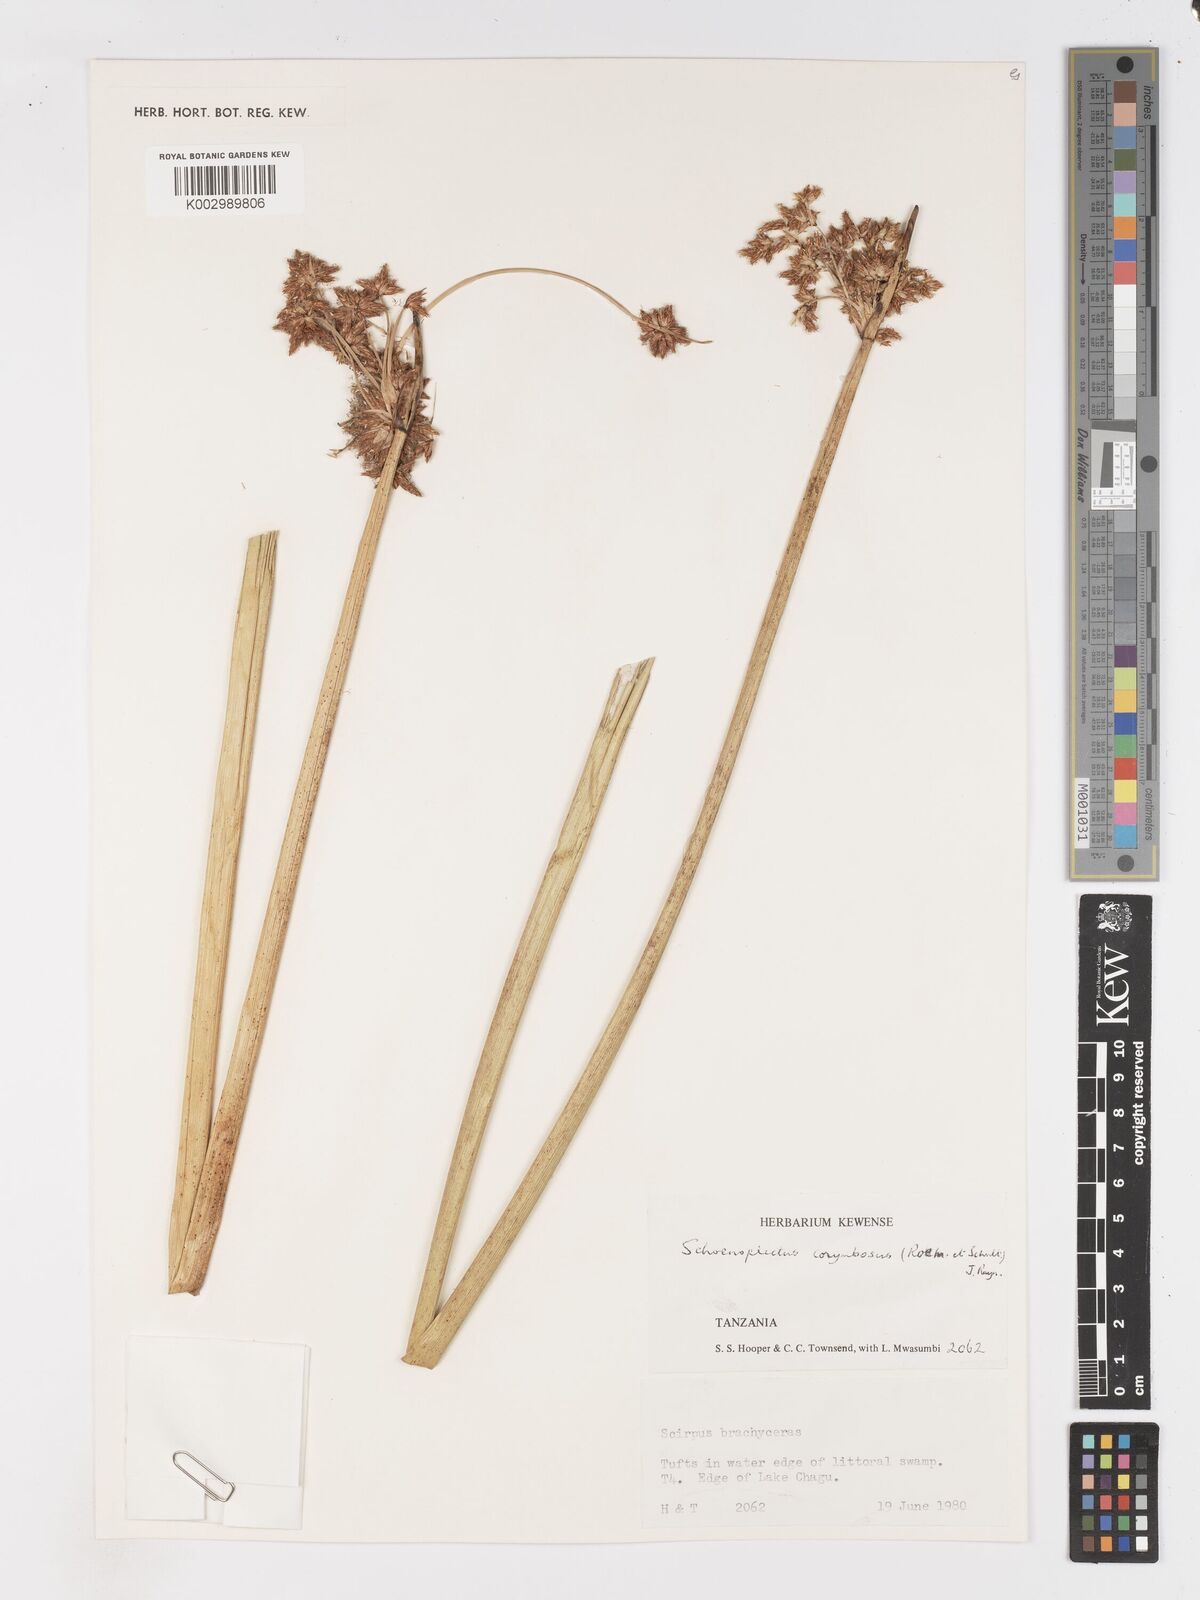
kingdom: Plantae
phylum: Tracheophyta
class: Liliopsida
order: Poales
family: Cyperaceae
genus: Schoenoplectiella
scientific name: Schoenoplectiella brachyceras
